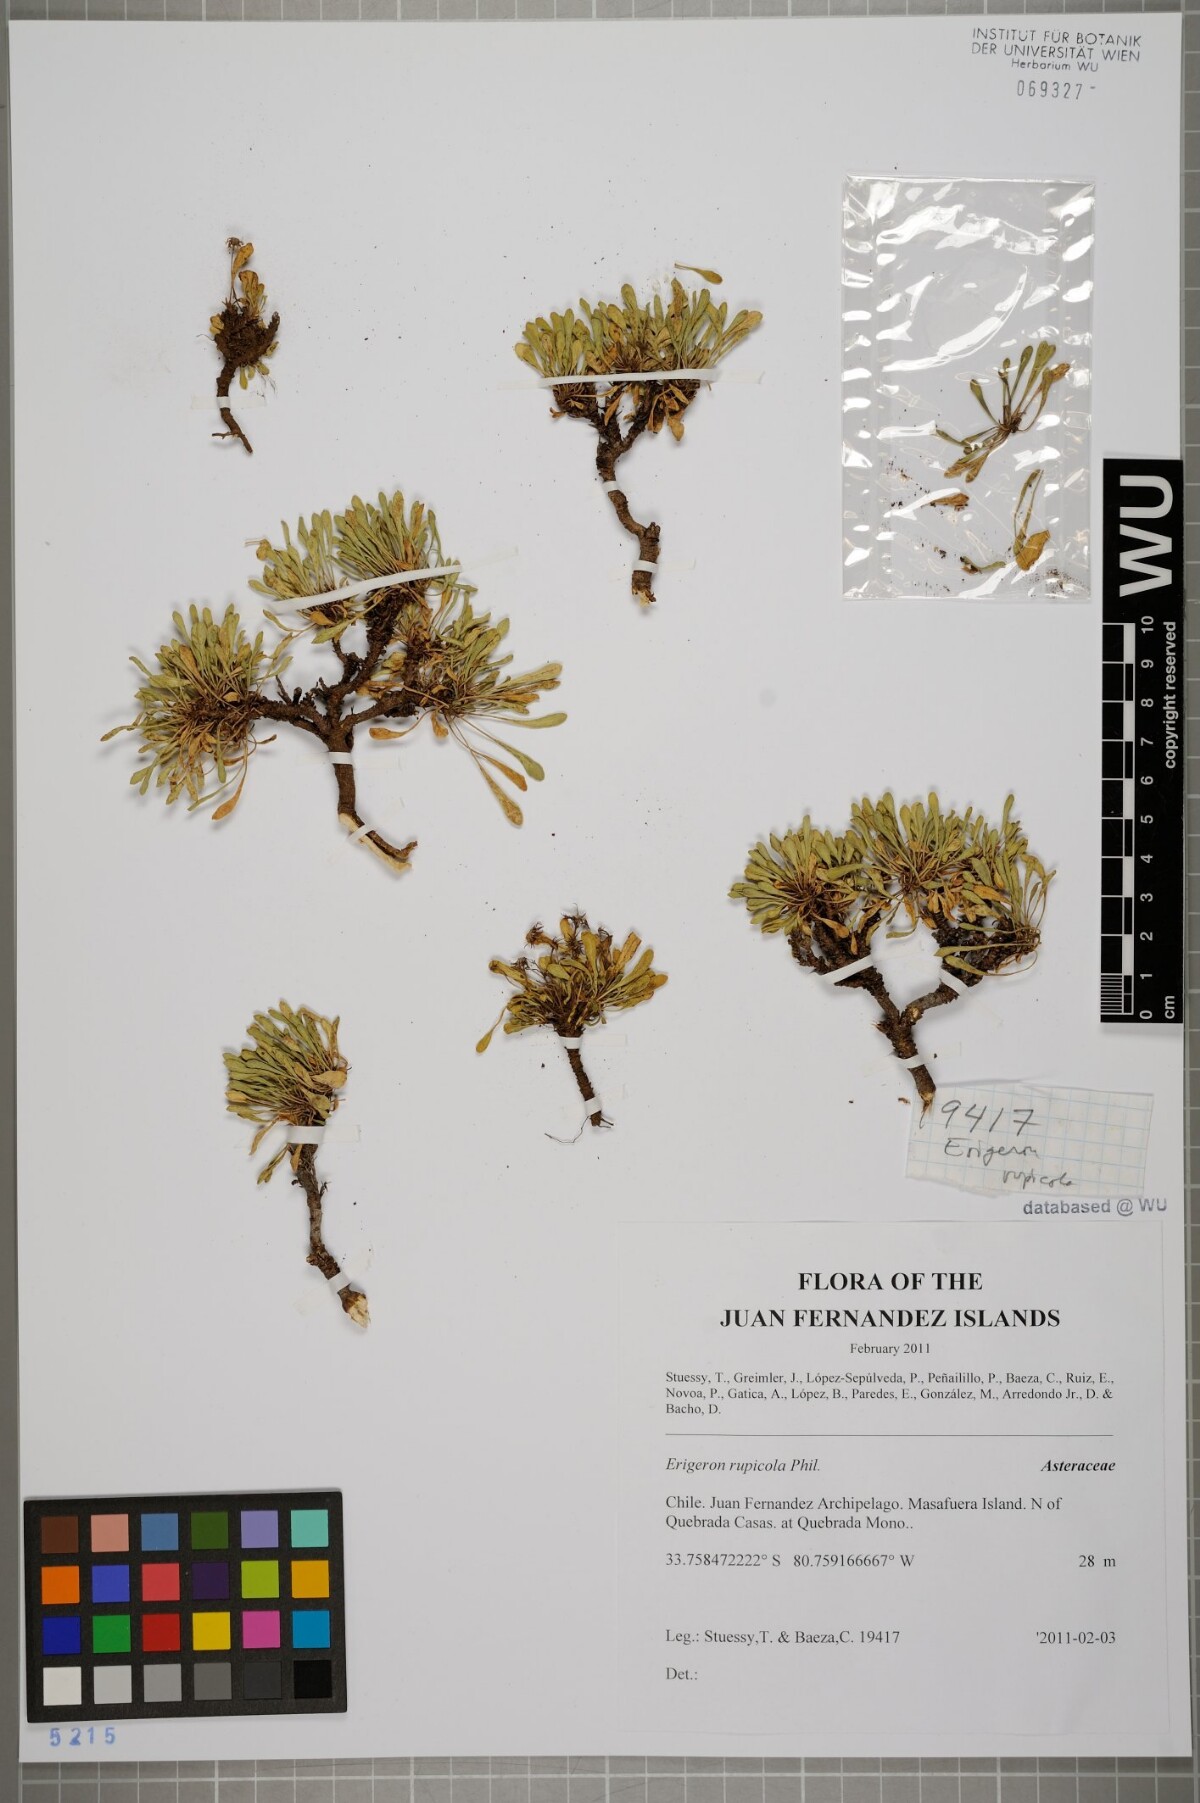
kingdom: Plantae
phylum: Tracheophyta
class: Magnoliopsida
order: Asterales
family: Asteraceae
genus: Erigeron
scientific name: Erigeron rupicola
